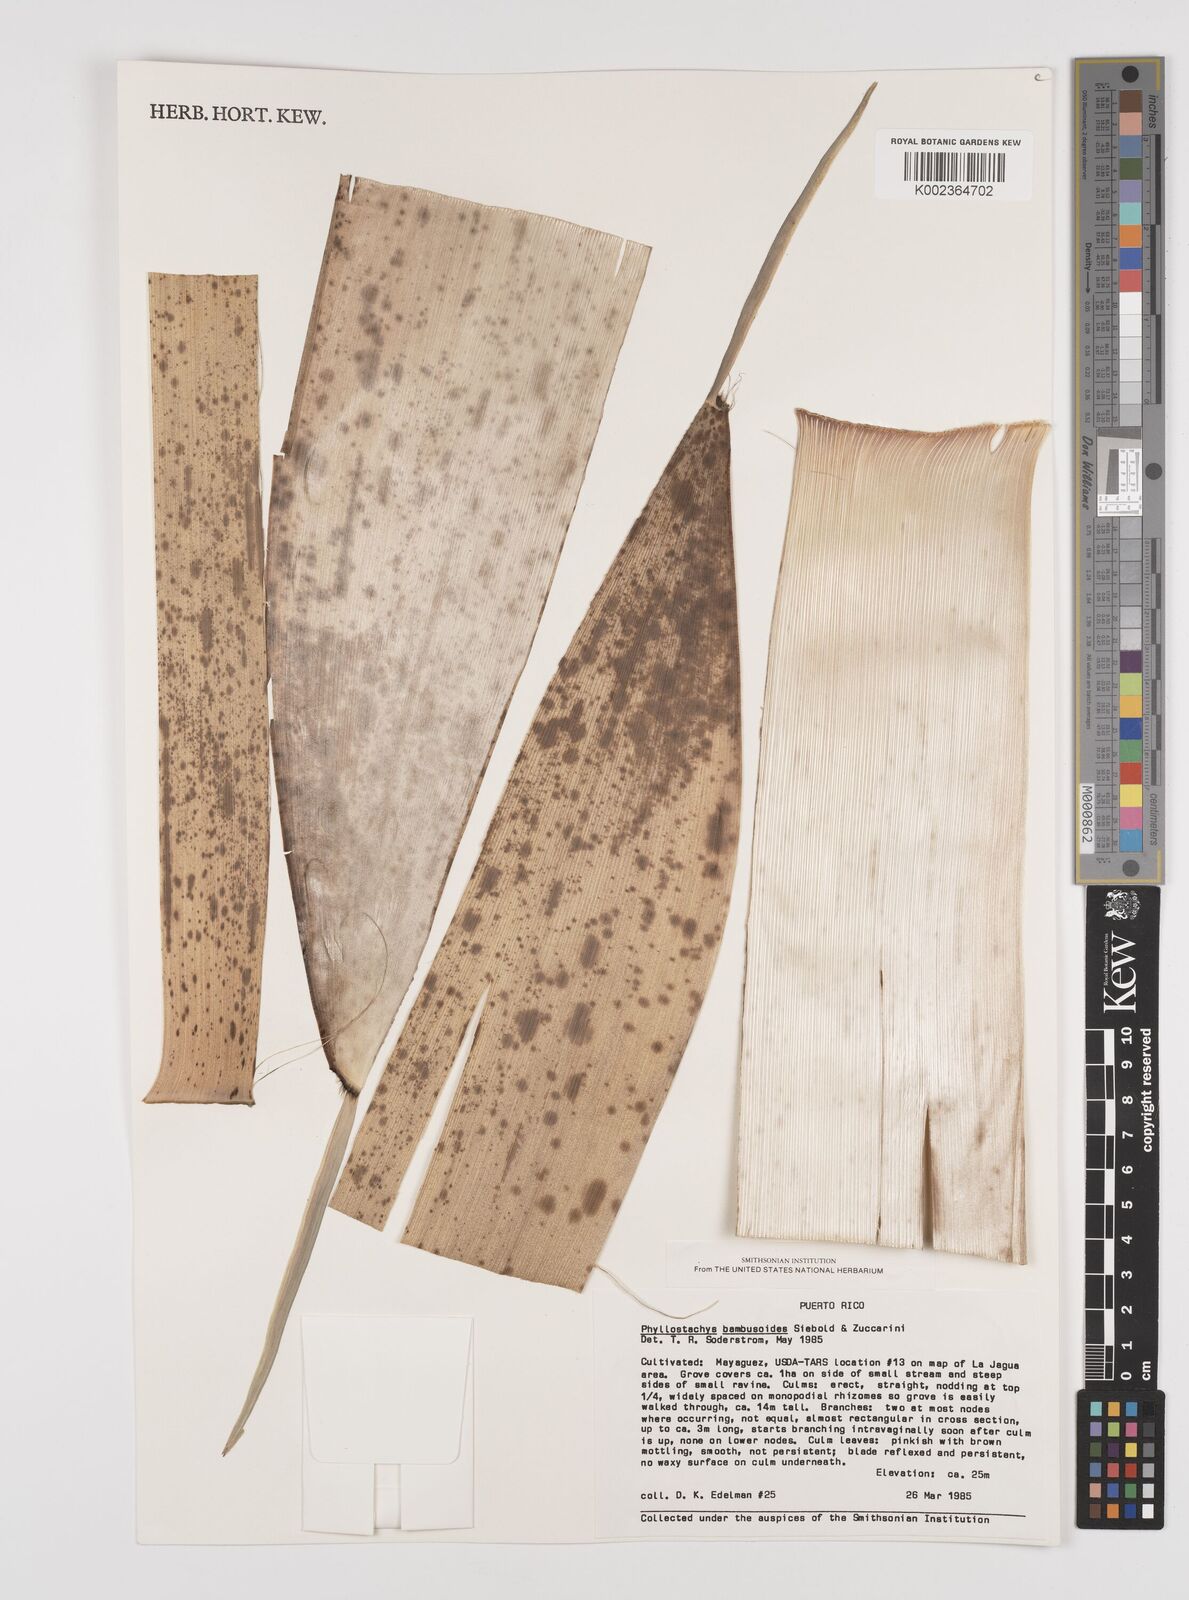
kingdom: Plantae
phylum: Tracheophyta
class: Liliopsida
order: Poales
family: Poaceae
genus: Phyllostachys
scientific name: Phyllostachys reticulata
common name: Bamboo
